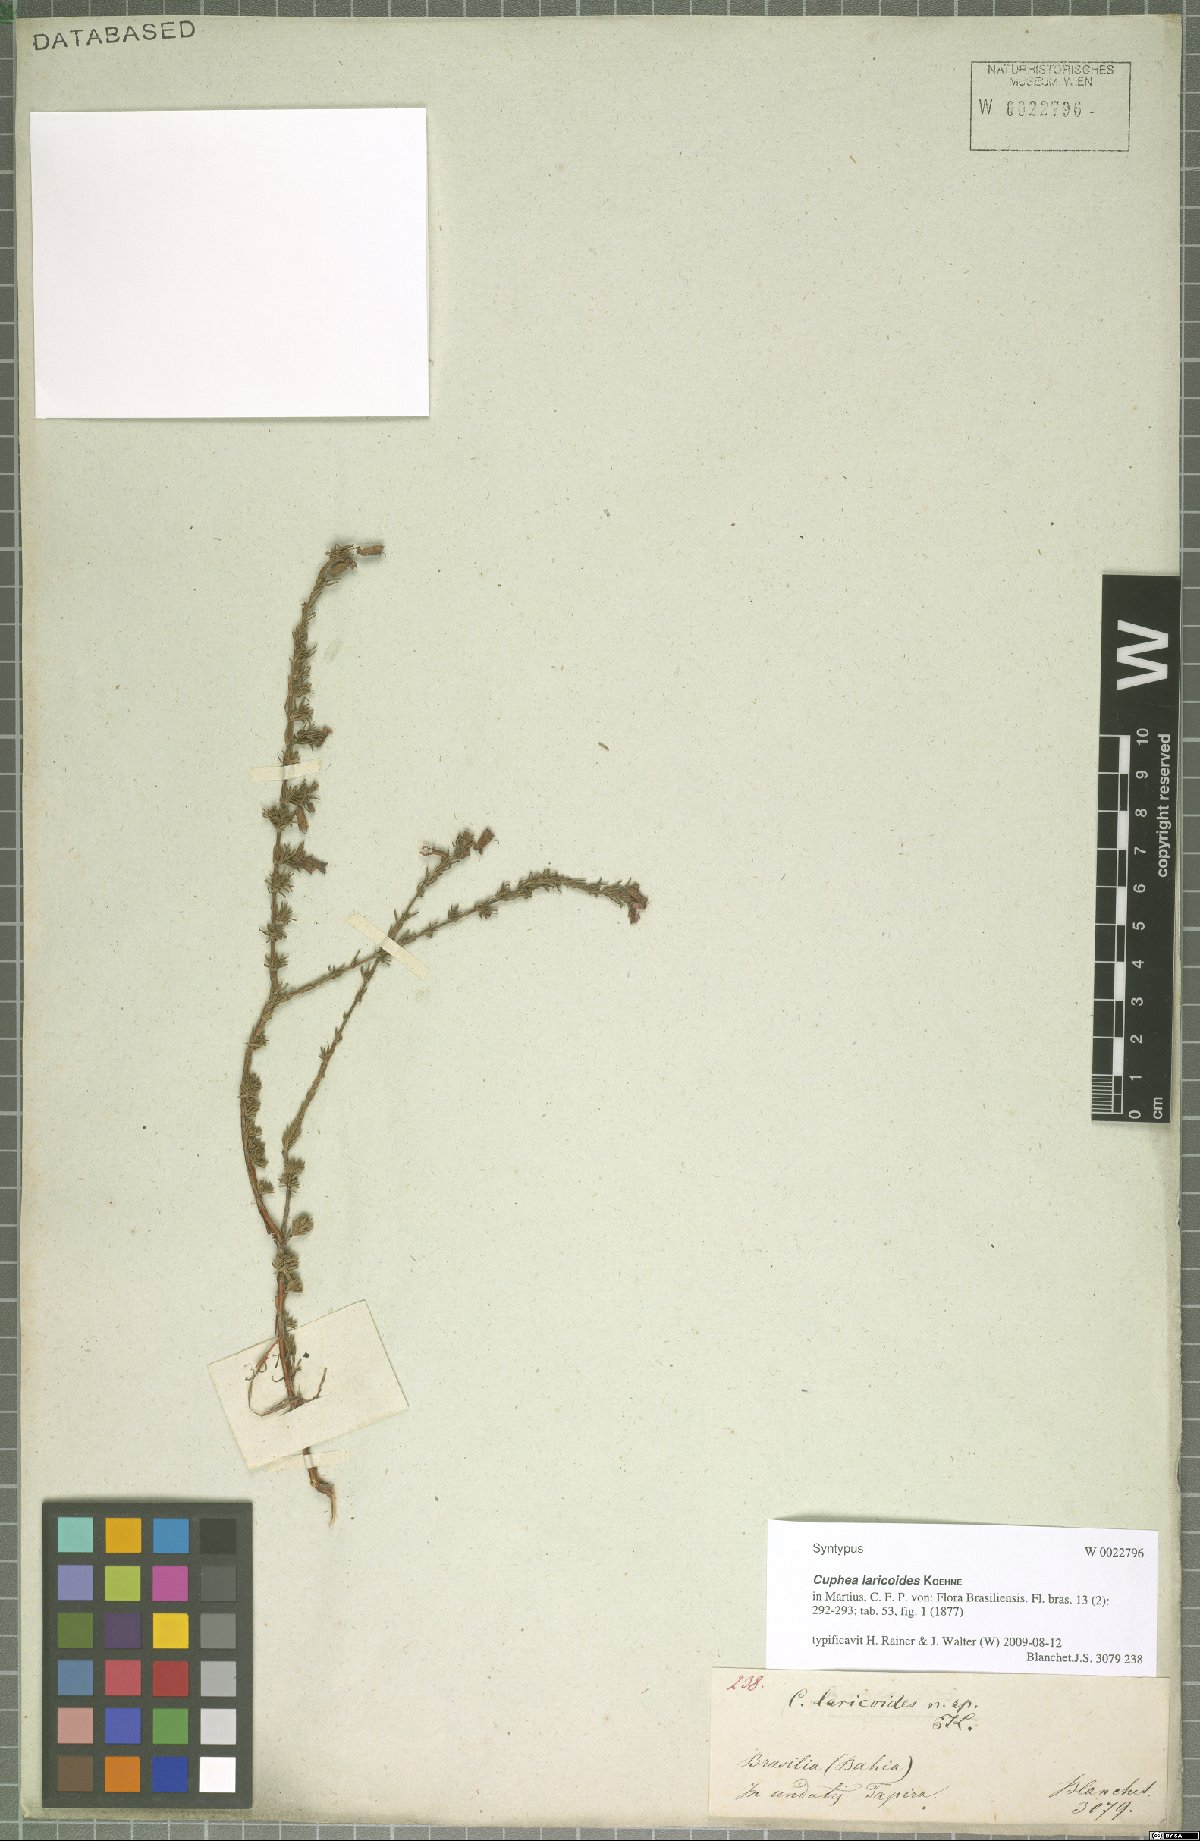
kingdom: Plantae
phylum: Tracheophyta
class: Magnoliopsida
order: Myrtales
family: Lythraceae
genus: Cuphea
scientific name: Cuphea laricoides
